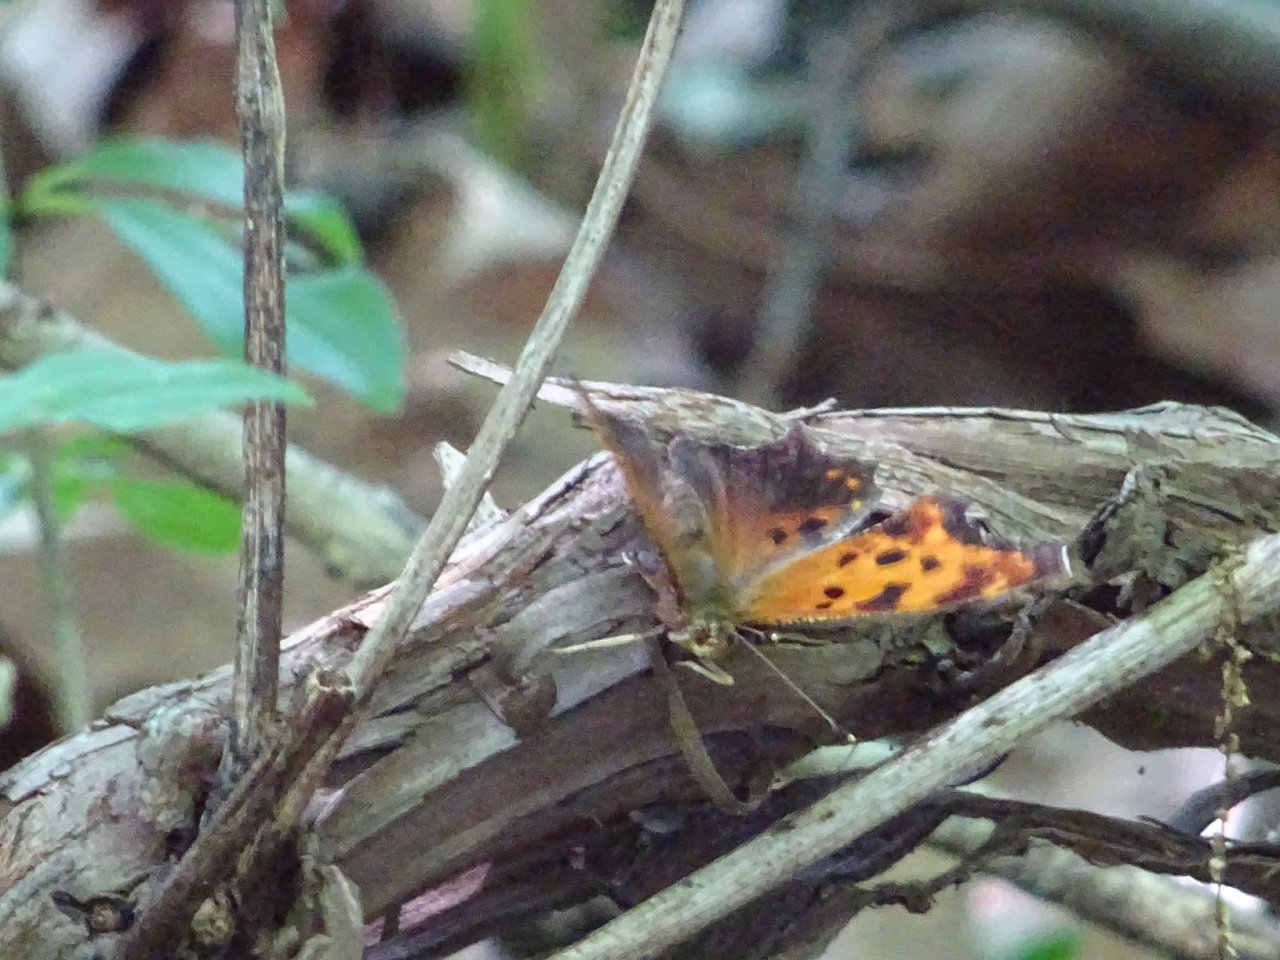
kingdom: Animalia
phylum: Arthropoda
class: Insecta
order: Lepidoptera
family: Nymphalidae
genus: Polygonia
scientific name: Polygonia comma
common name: Eastern Comma
